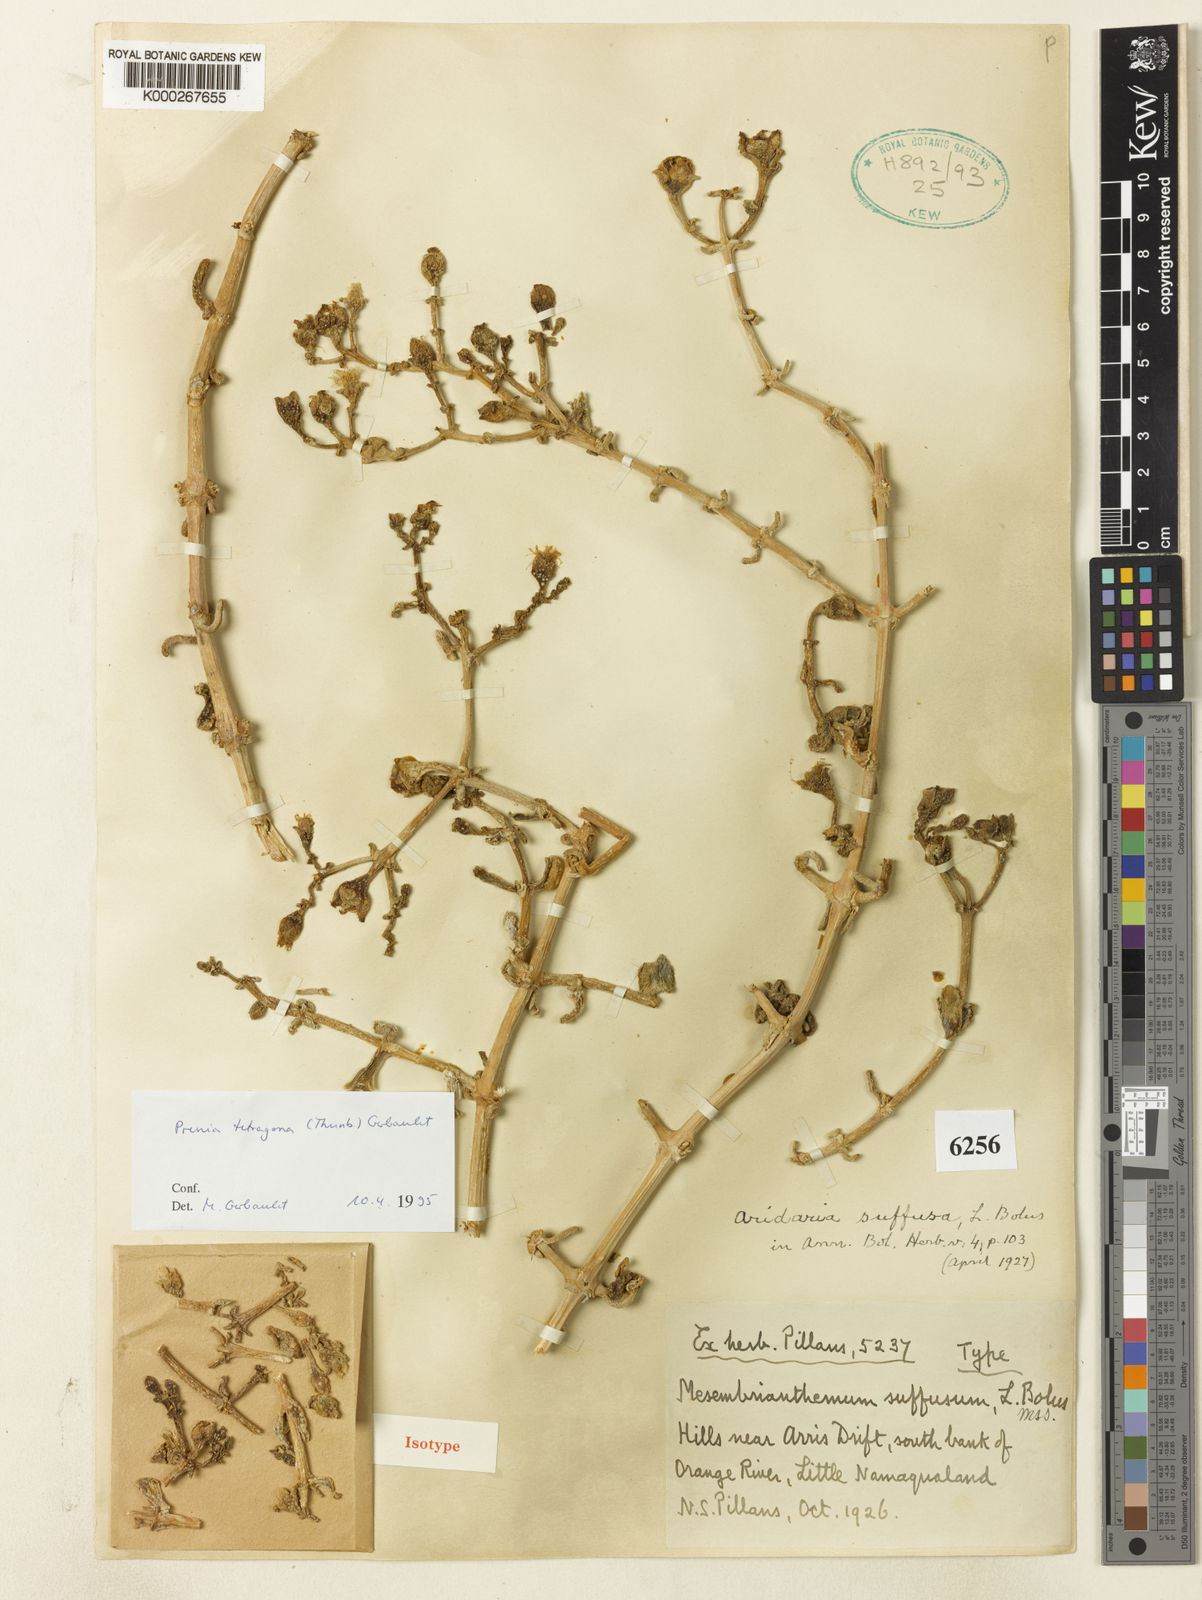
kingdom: Plantae
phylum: Tracheophyta
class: Magnoliopsida
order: Caryophyllales
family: Aizoaceae
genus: Mesembryanthemum
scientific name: Mesembryanthemum tetragonum
